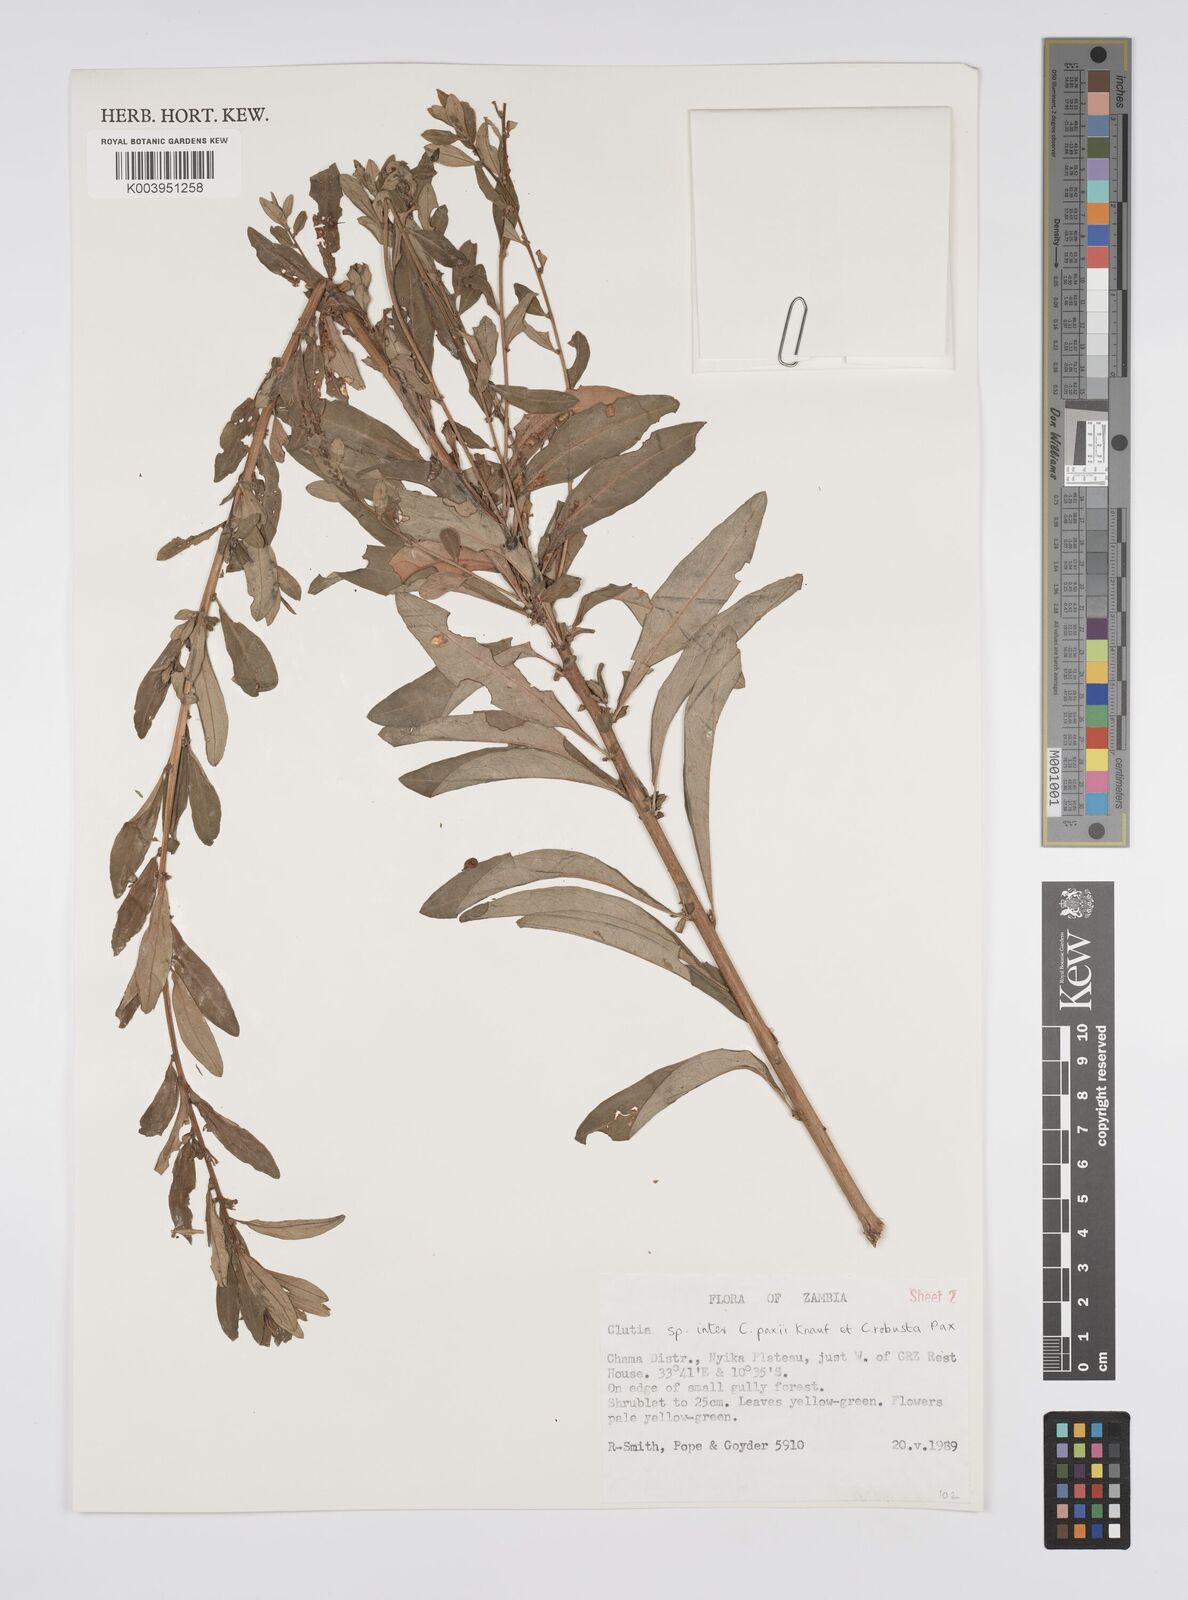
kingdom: Plantae
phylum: Tracheophyta
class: Magnoliopsida
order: Malpighiales
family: Peraceae
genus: Clutia
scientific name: Clutia paxii
